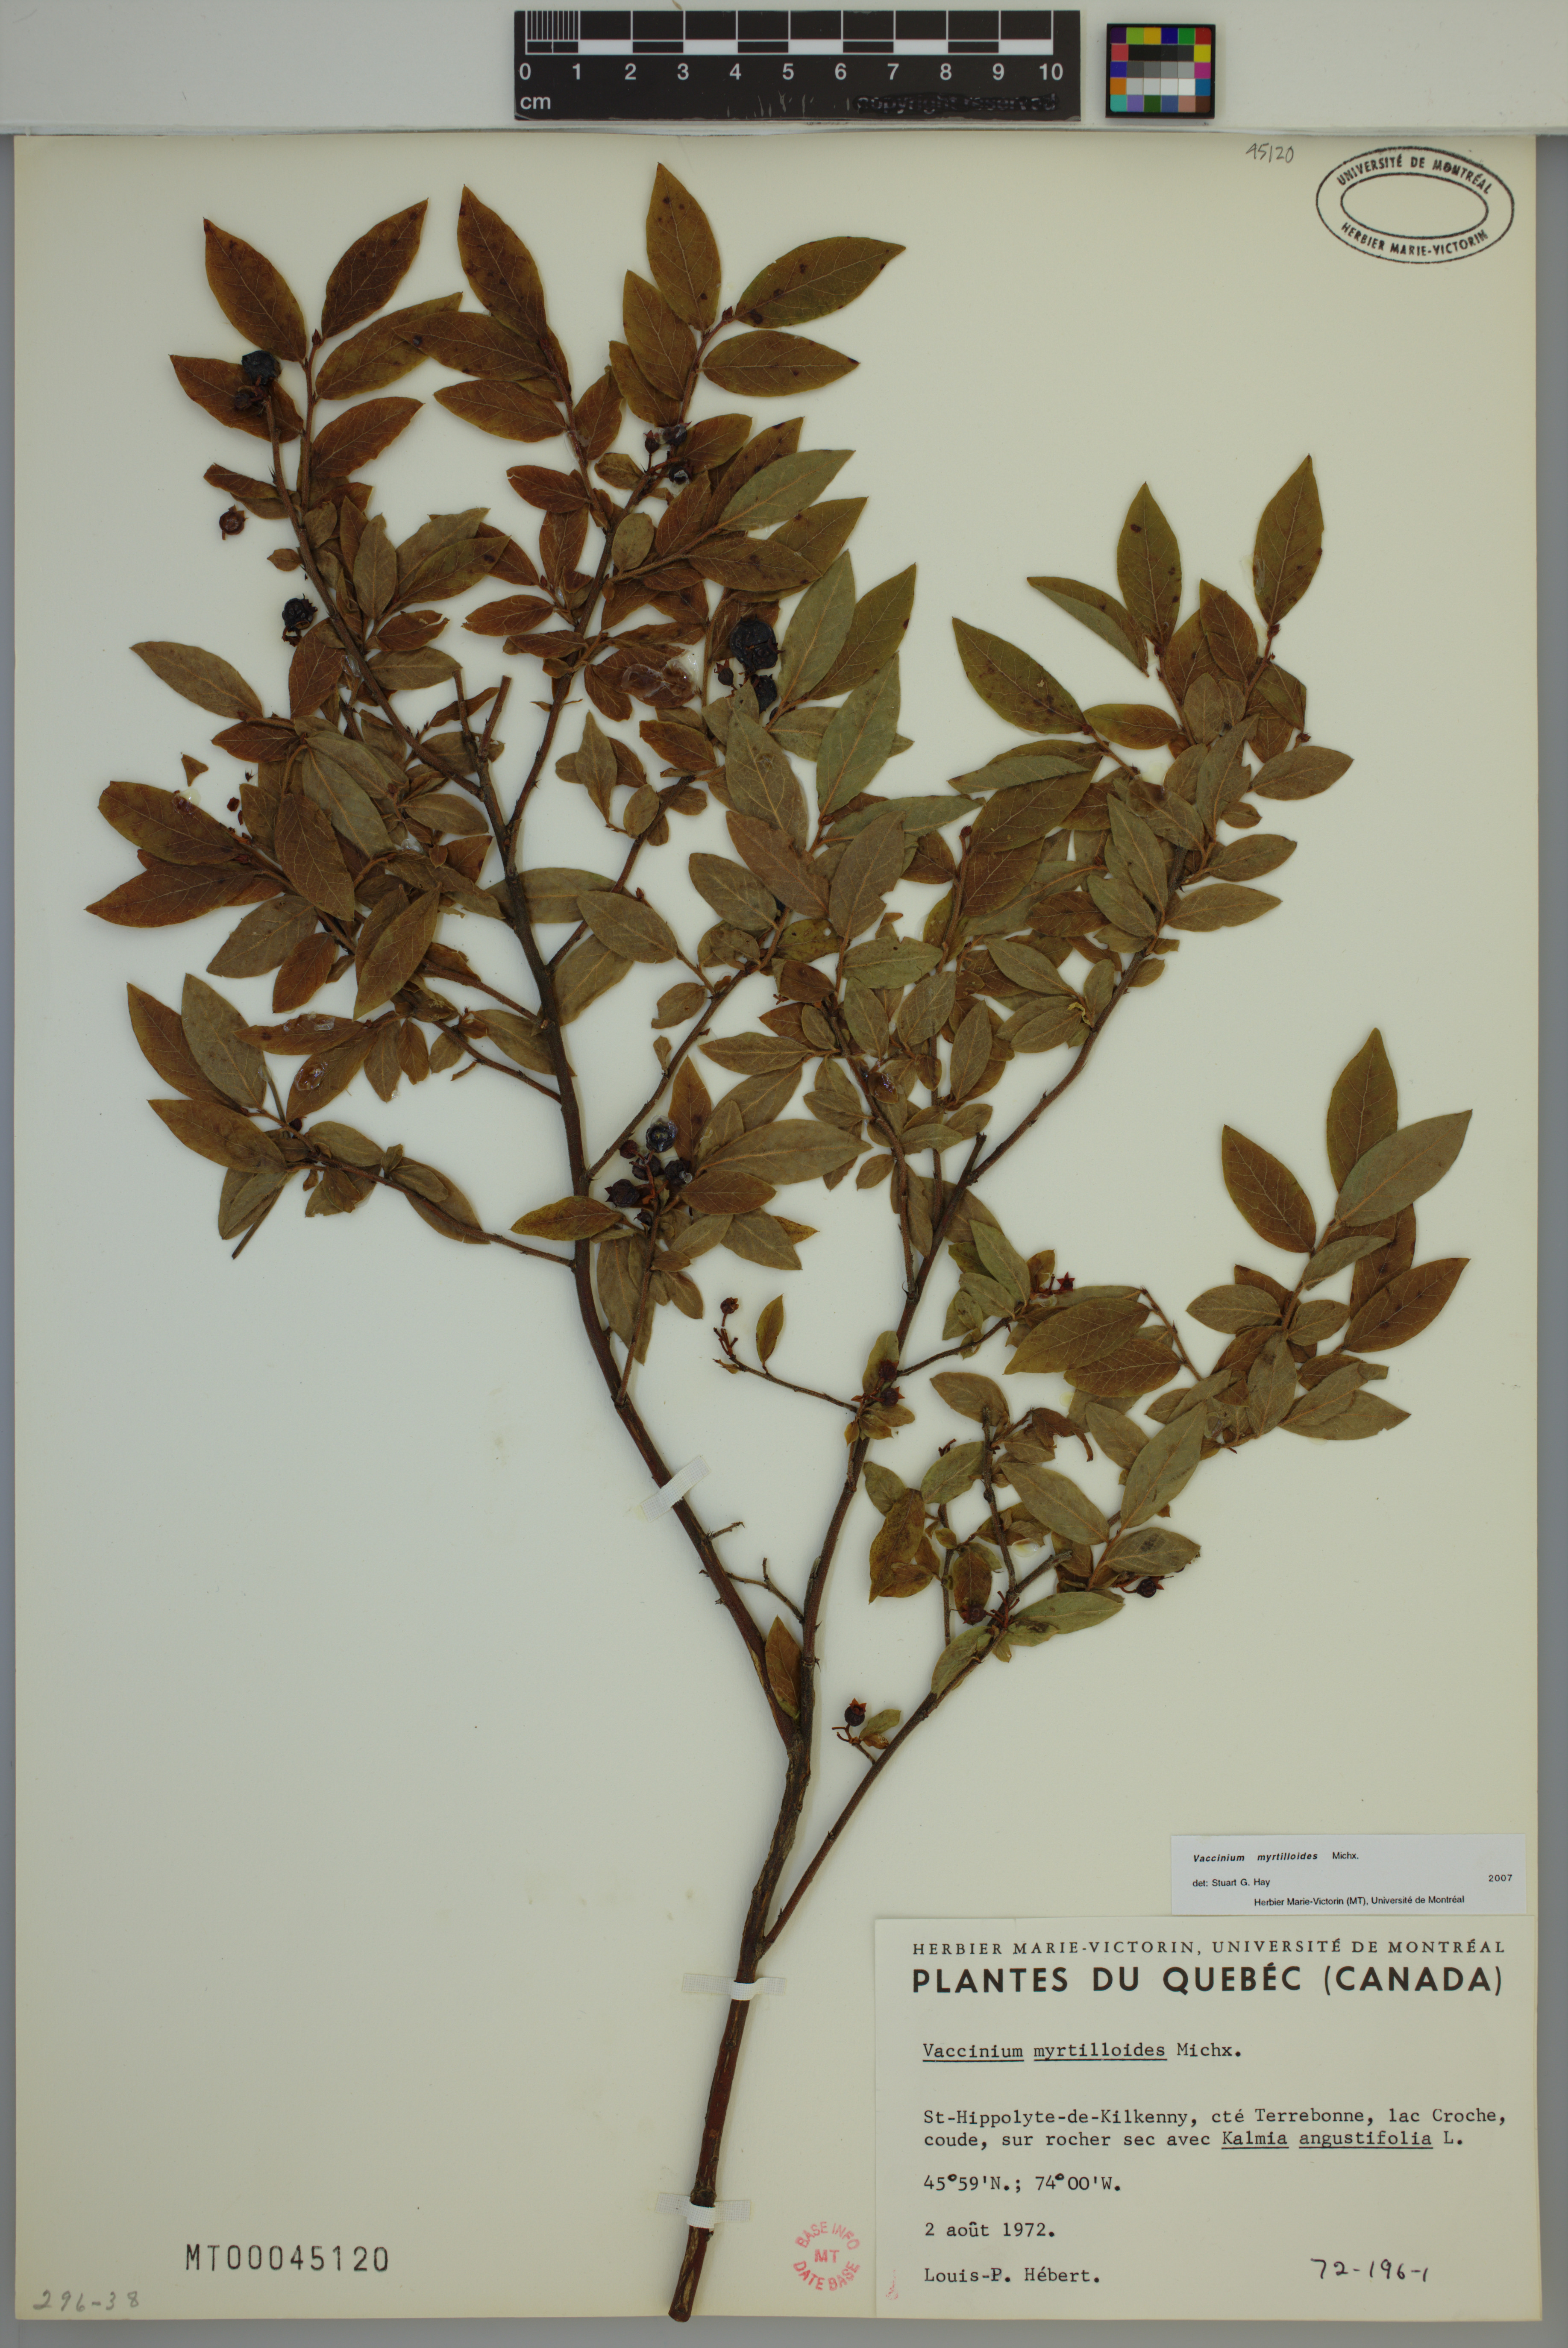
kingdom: Plantae
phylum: Tracheophyta
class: Magnoliopsida
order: Ericales
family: Ericaceae
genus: Vaccinium
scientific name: Vaccinium myrtilloides
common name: Canada blueberry
